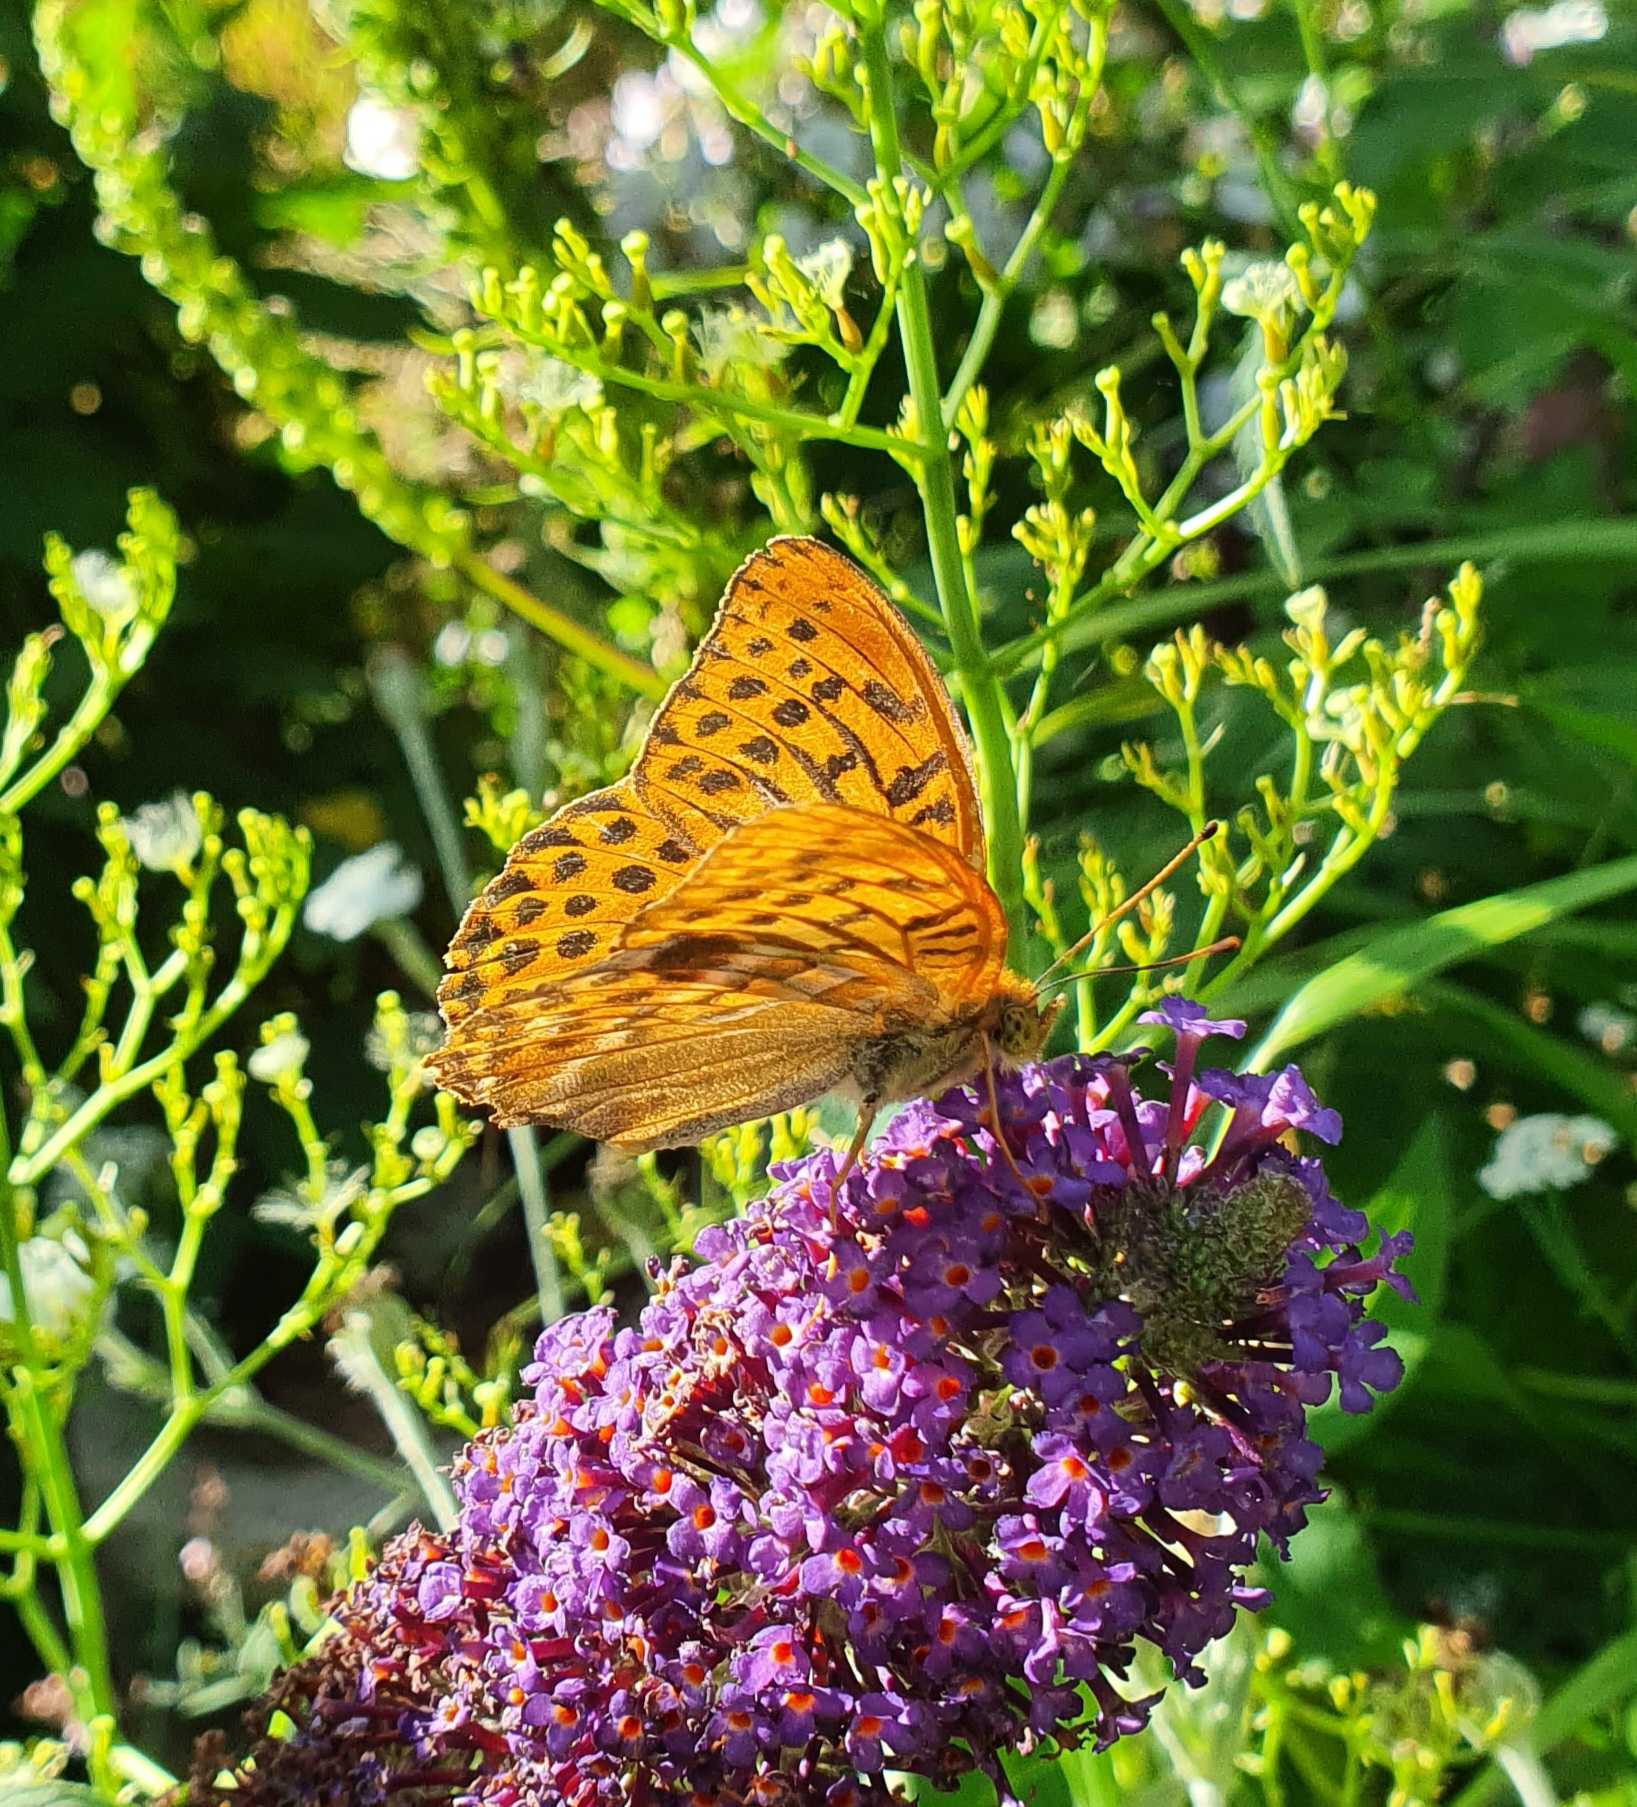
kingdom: Animalia
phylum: Arthropoda
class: Insecta
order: Lepidoptera
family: Nymphalidae
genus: Argynnis
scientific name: Argynnis paphia
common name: Kejserkåbe
